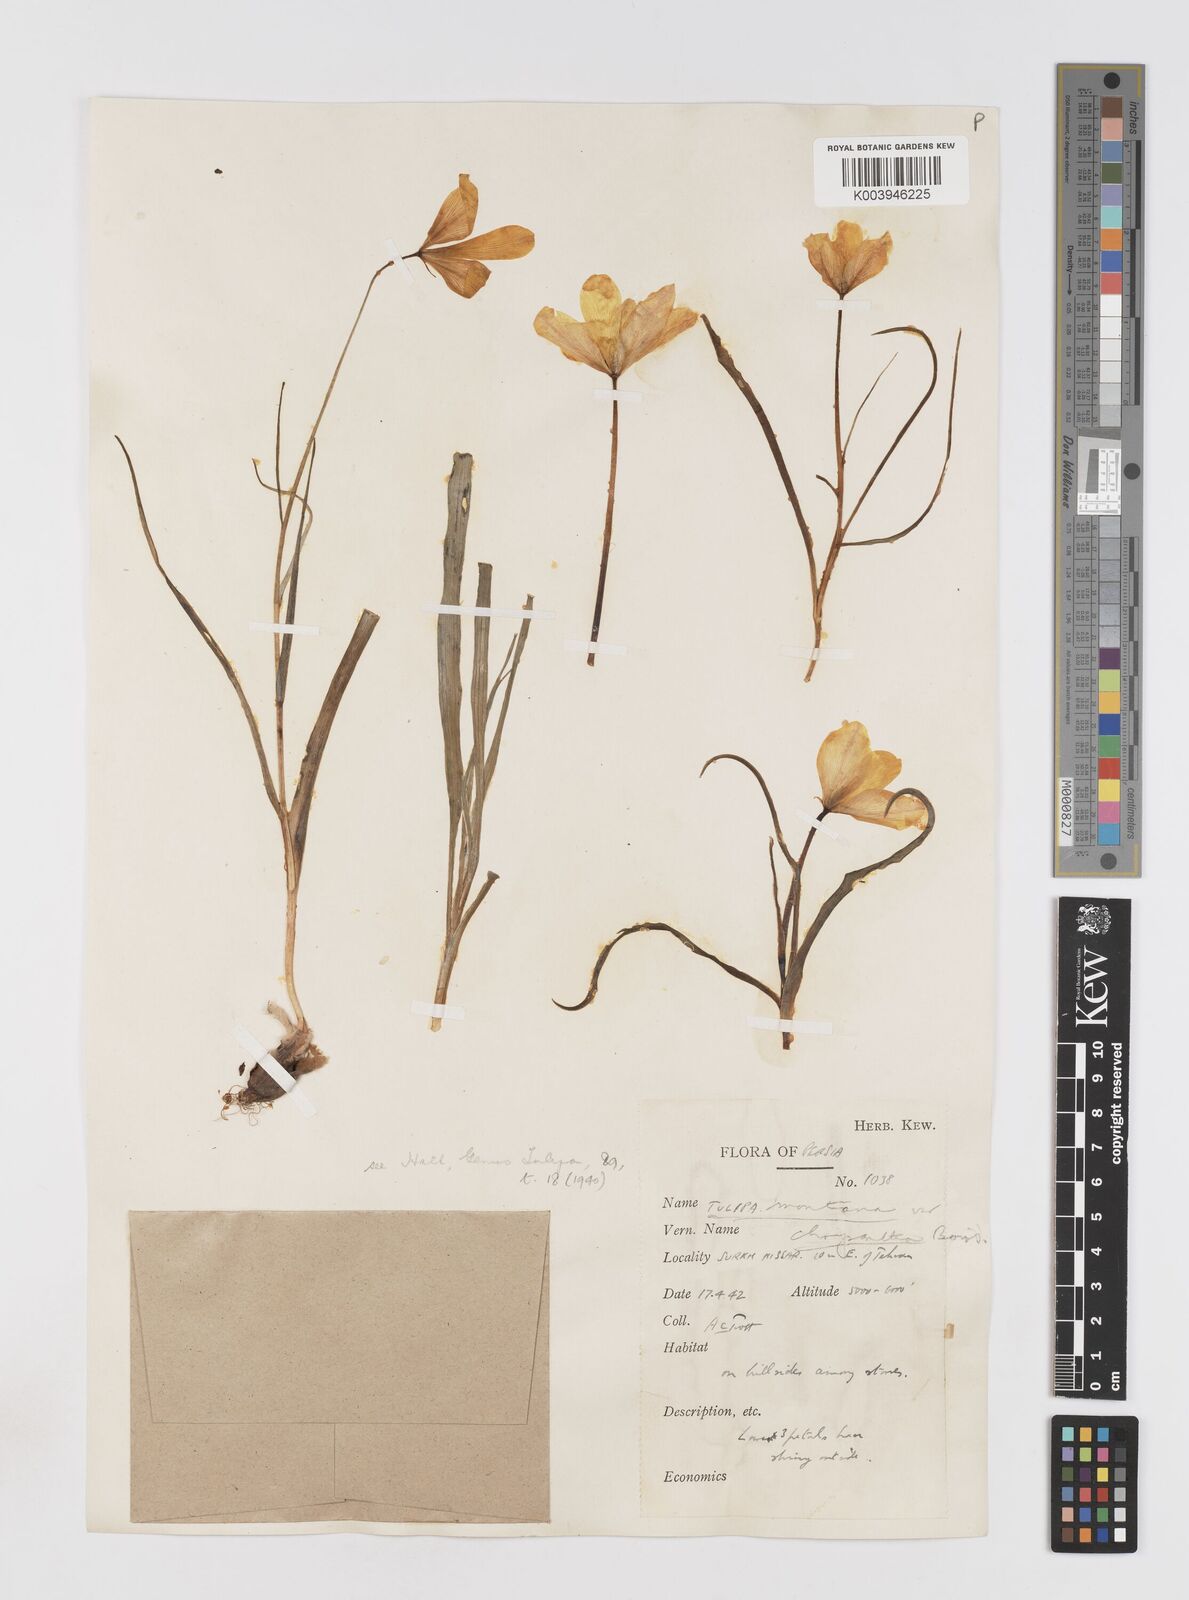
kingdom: Plantae
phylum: Tracheophyta
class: Liliopsida
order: Liliales
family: Liliaceae
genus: Tulipa
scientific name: Tulipa montana
